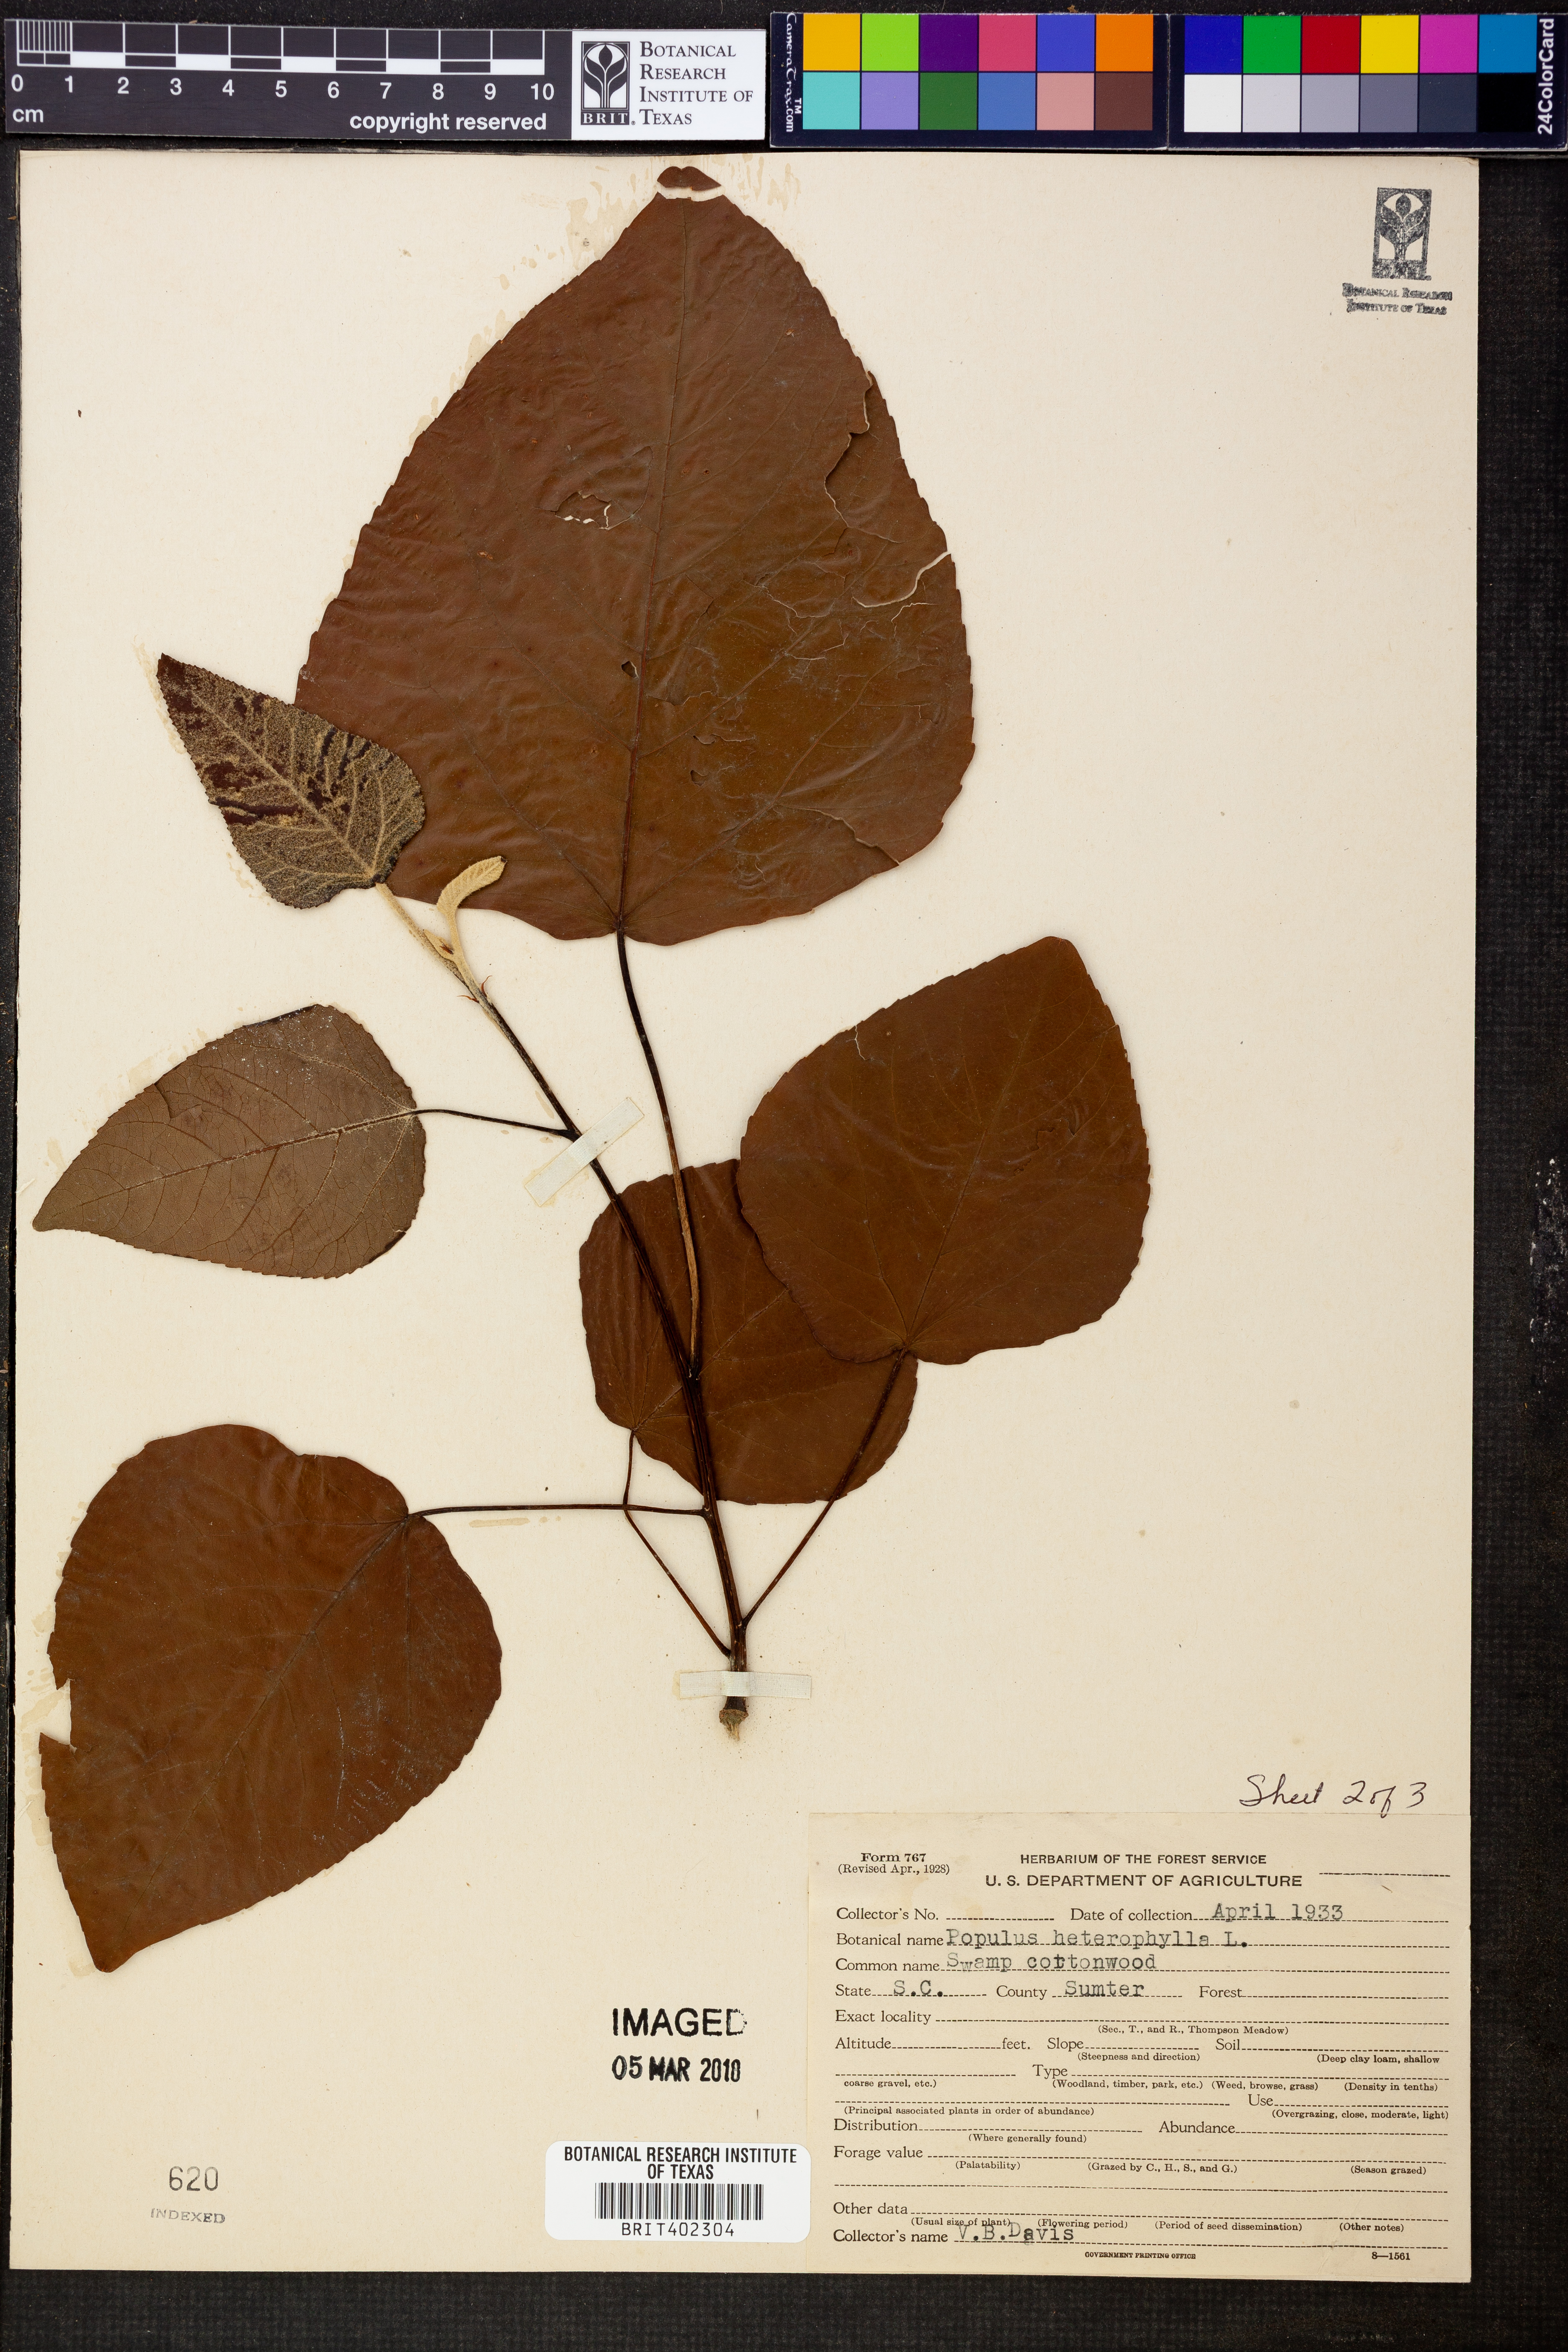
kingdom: Plantae
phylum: Tracheophyta
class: Magnoliopsida
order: Malpighiales
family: Salicaceae
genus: Populus
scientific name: Populus heterophylla
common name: Downy poplar
